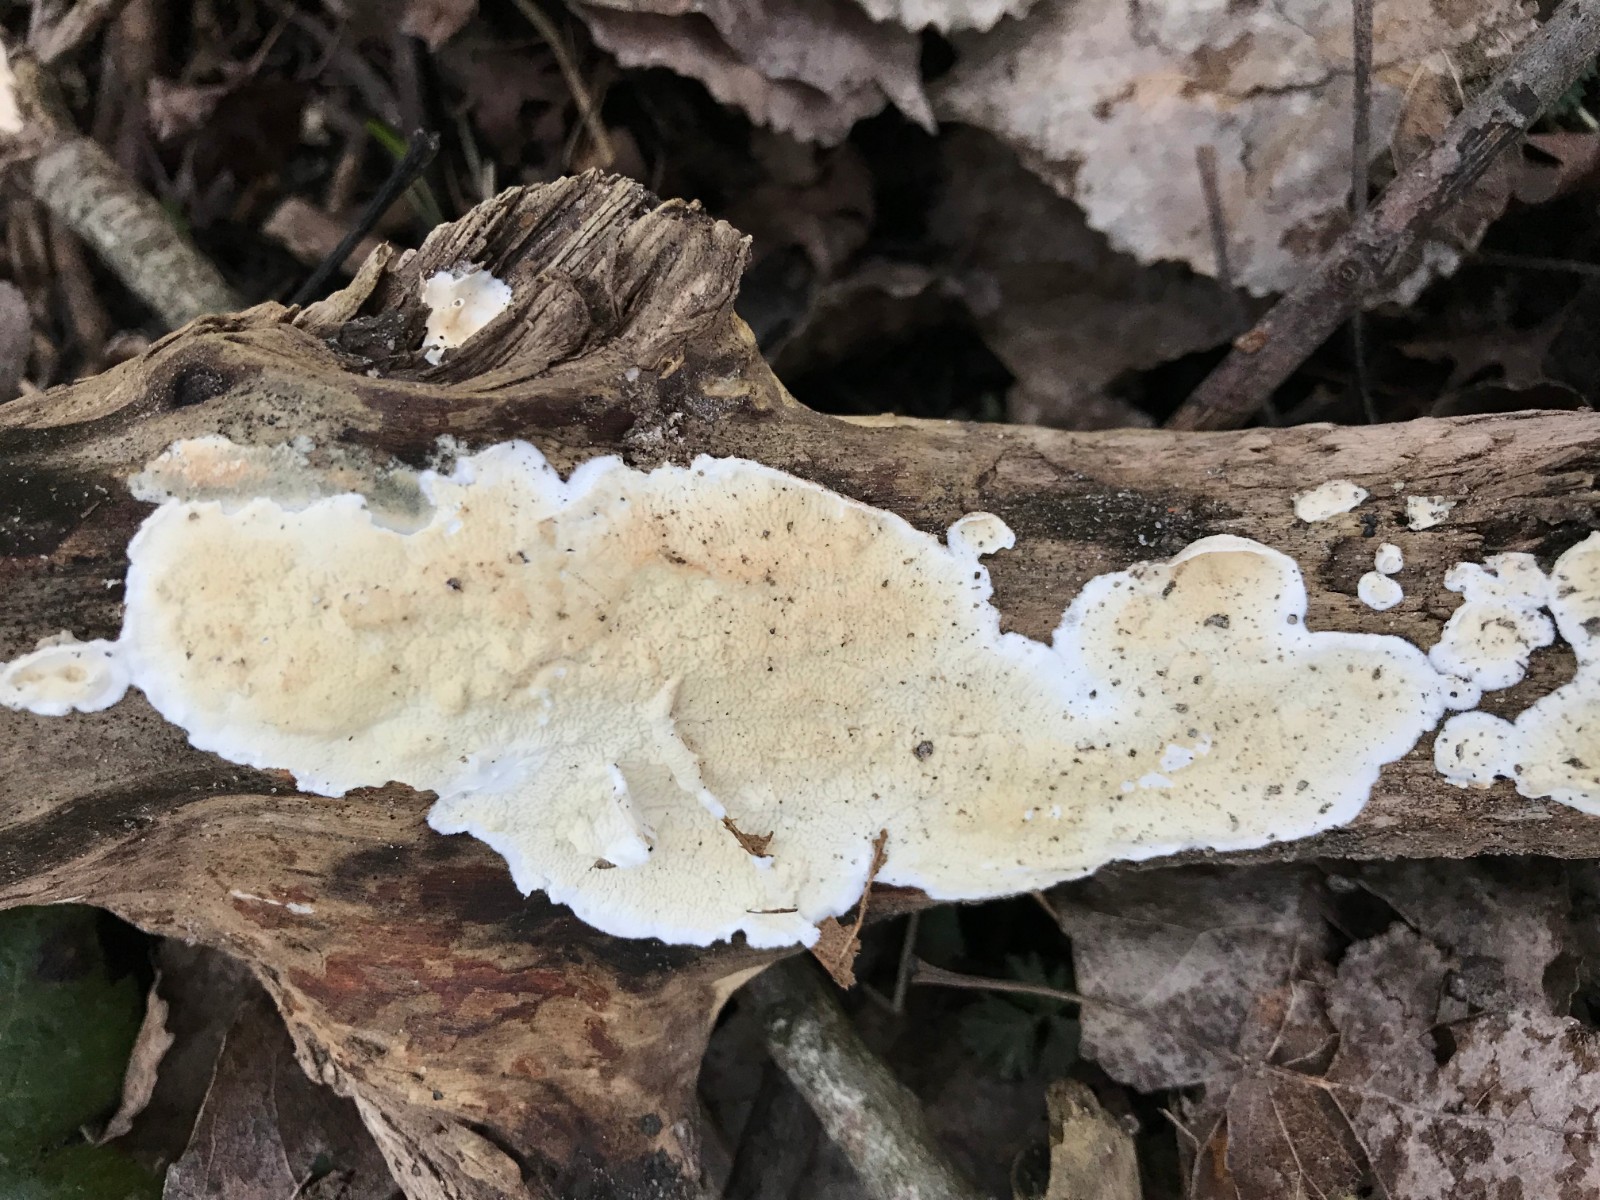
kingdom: Fungi
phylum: Basidiomycota
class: Agaricomycetes
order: Polyporales
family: Irpicaceae
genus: Byssomerulius
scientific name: Byssomerulius corium
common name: læder-åresvamp
